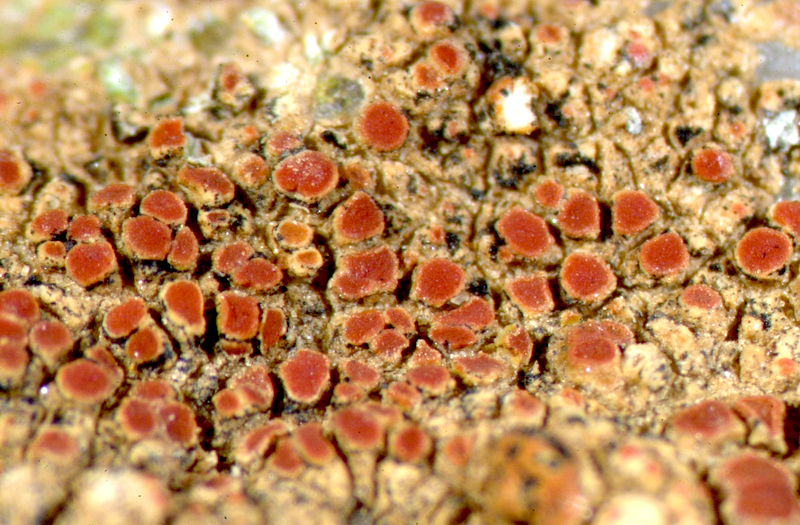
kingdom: Fungi
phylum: Ascomycota
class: Lecanoromycetes
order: Lecanorales
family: Parmeliaceae
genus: Xanthoparmelia
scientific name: Xanthoparmelia
